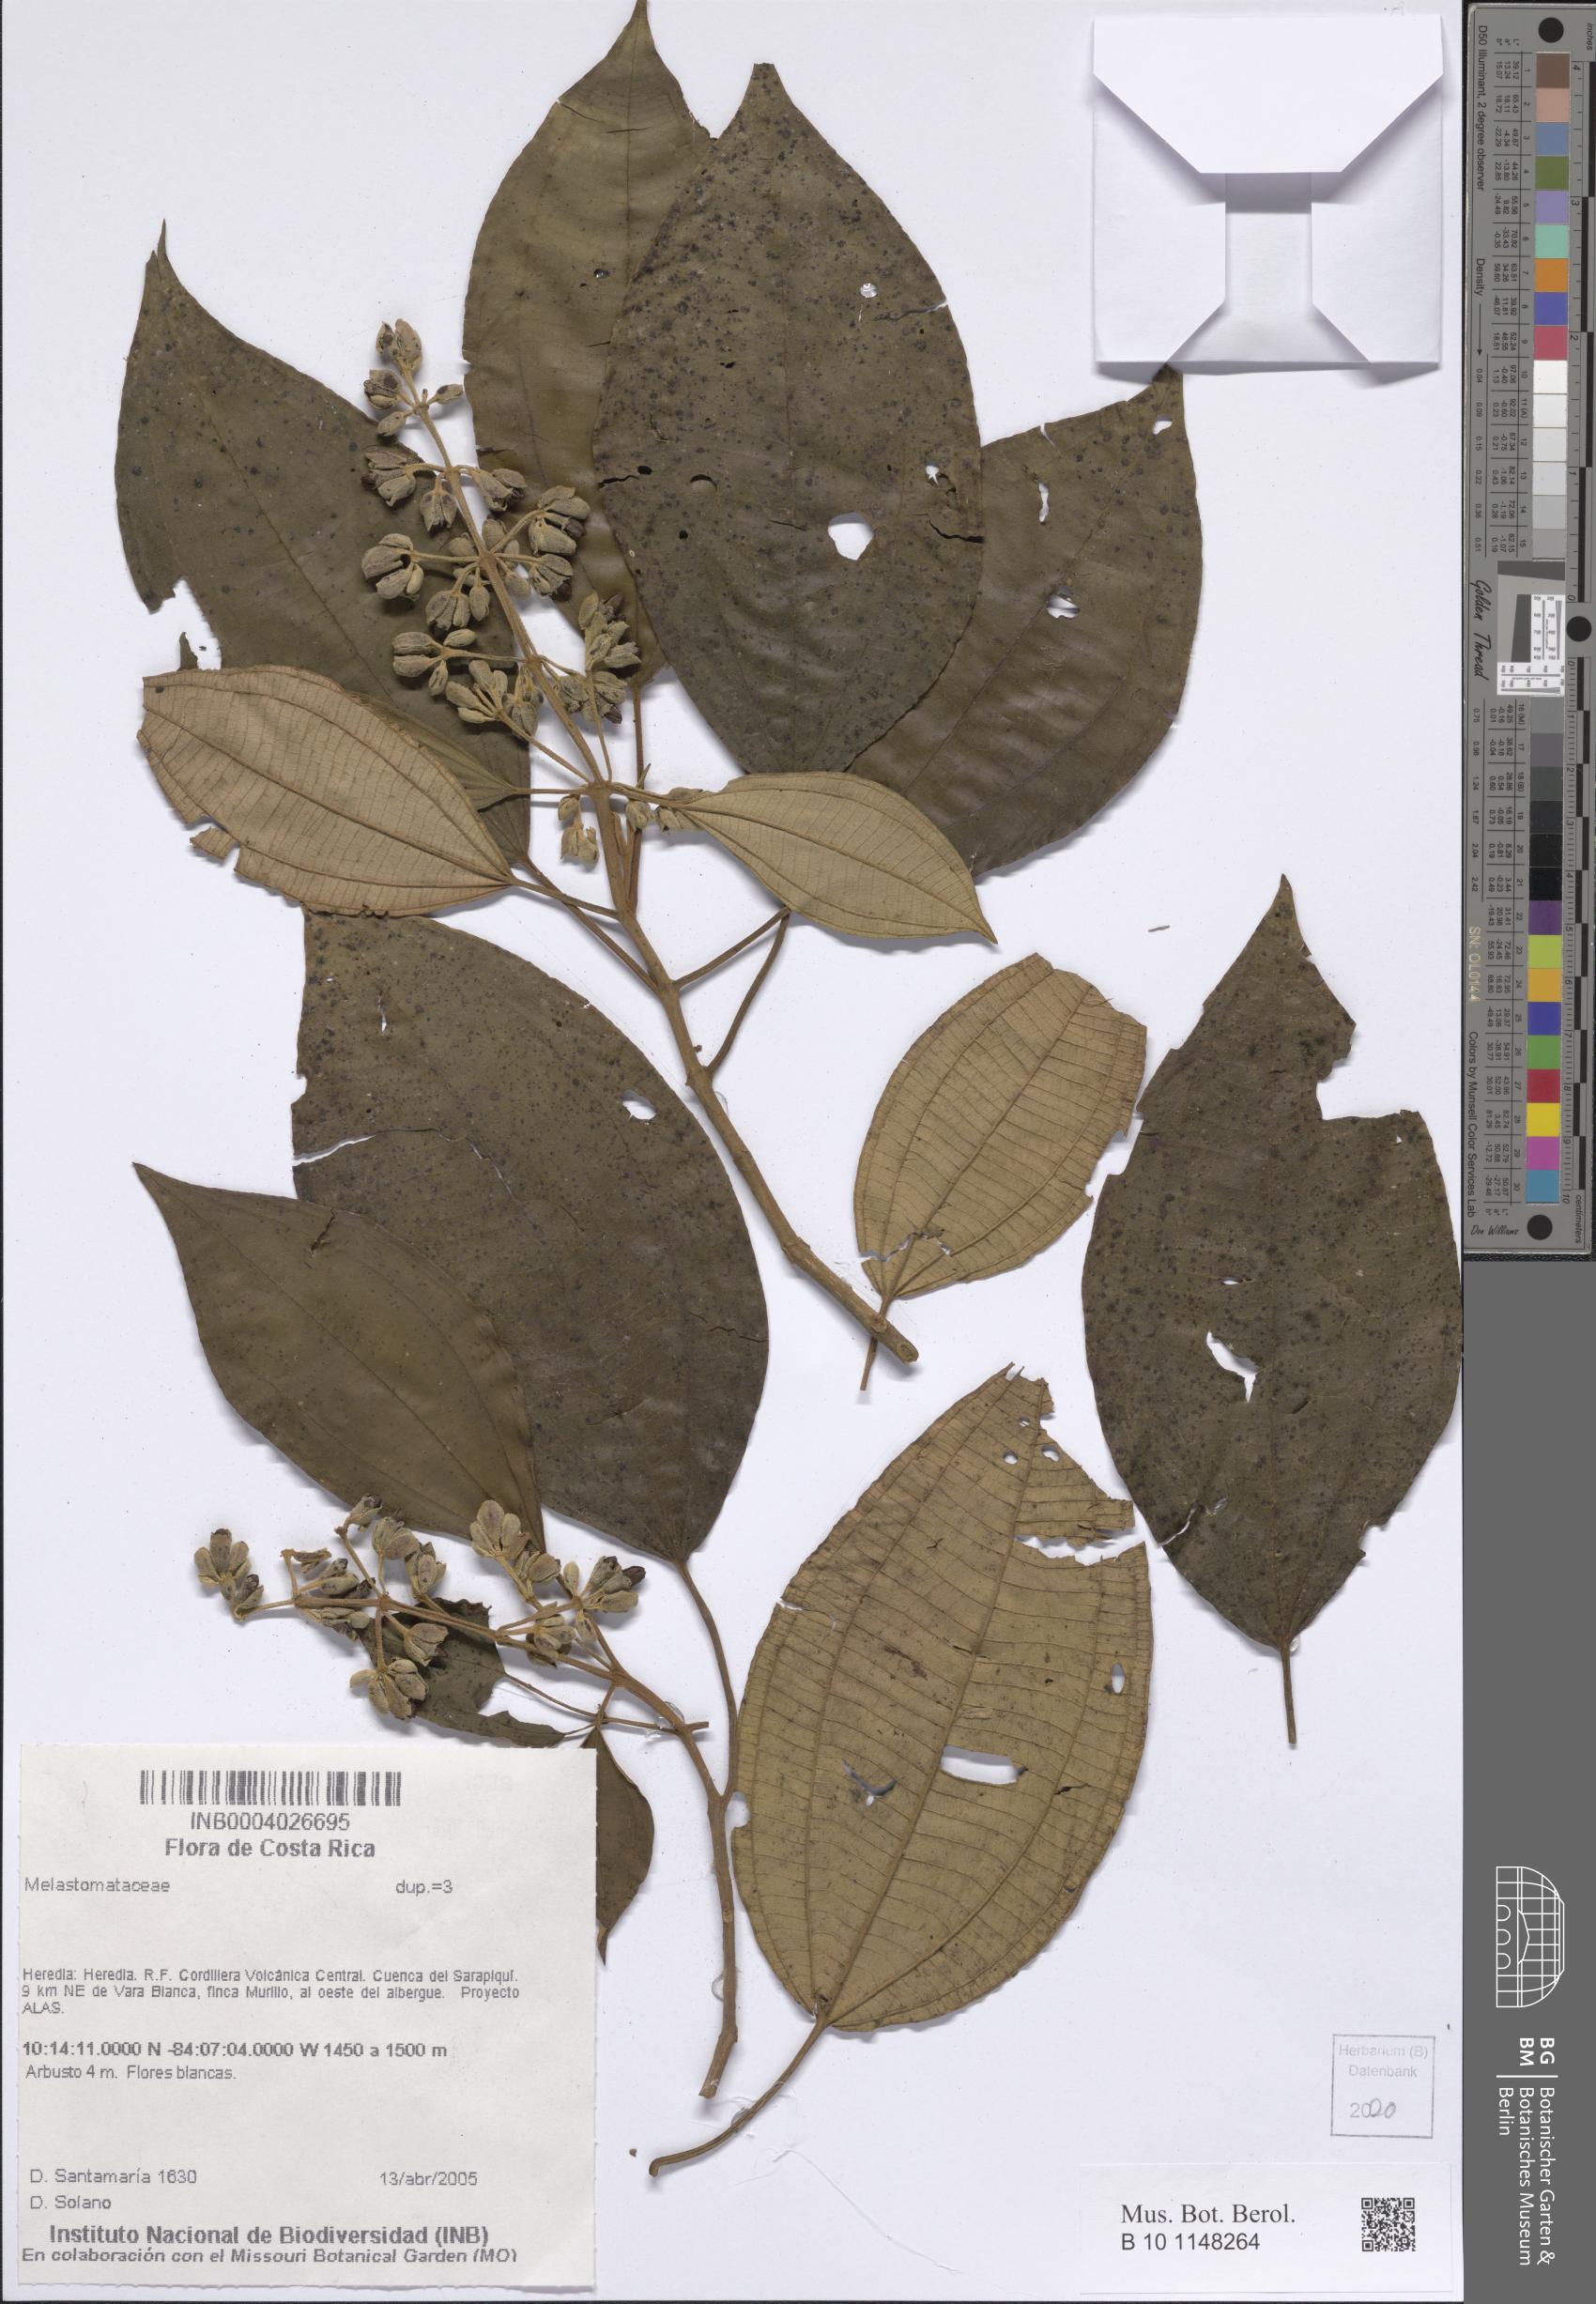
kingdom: Plantae
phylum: Tracheophyta
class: Magnoliopsida
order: Myrtales
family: Melastomataceae
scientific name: Melastomataceae
